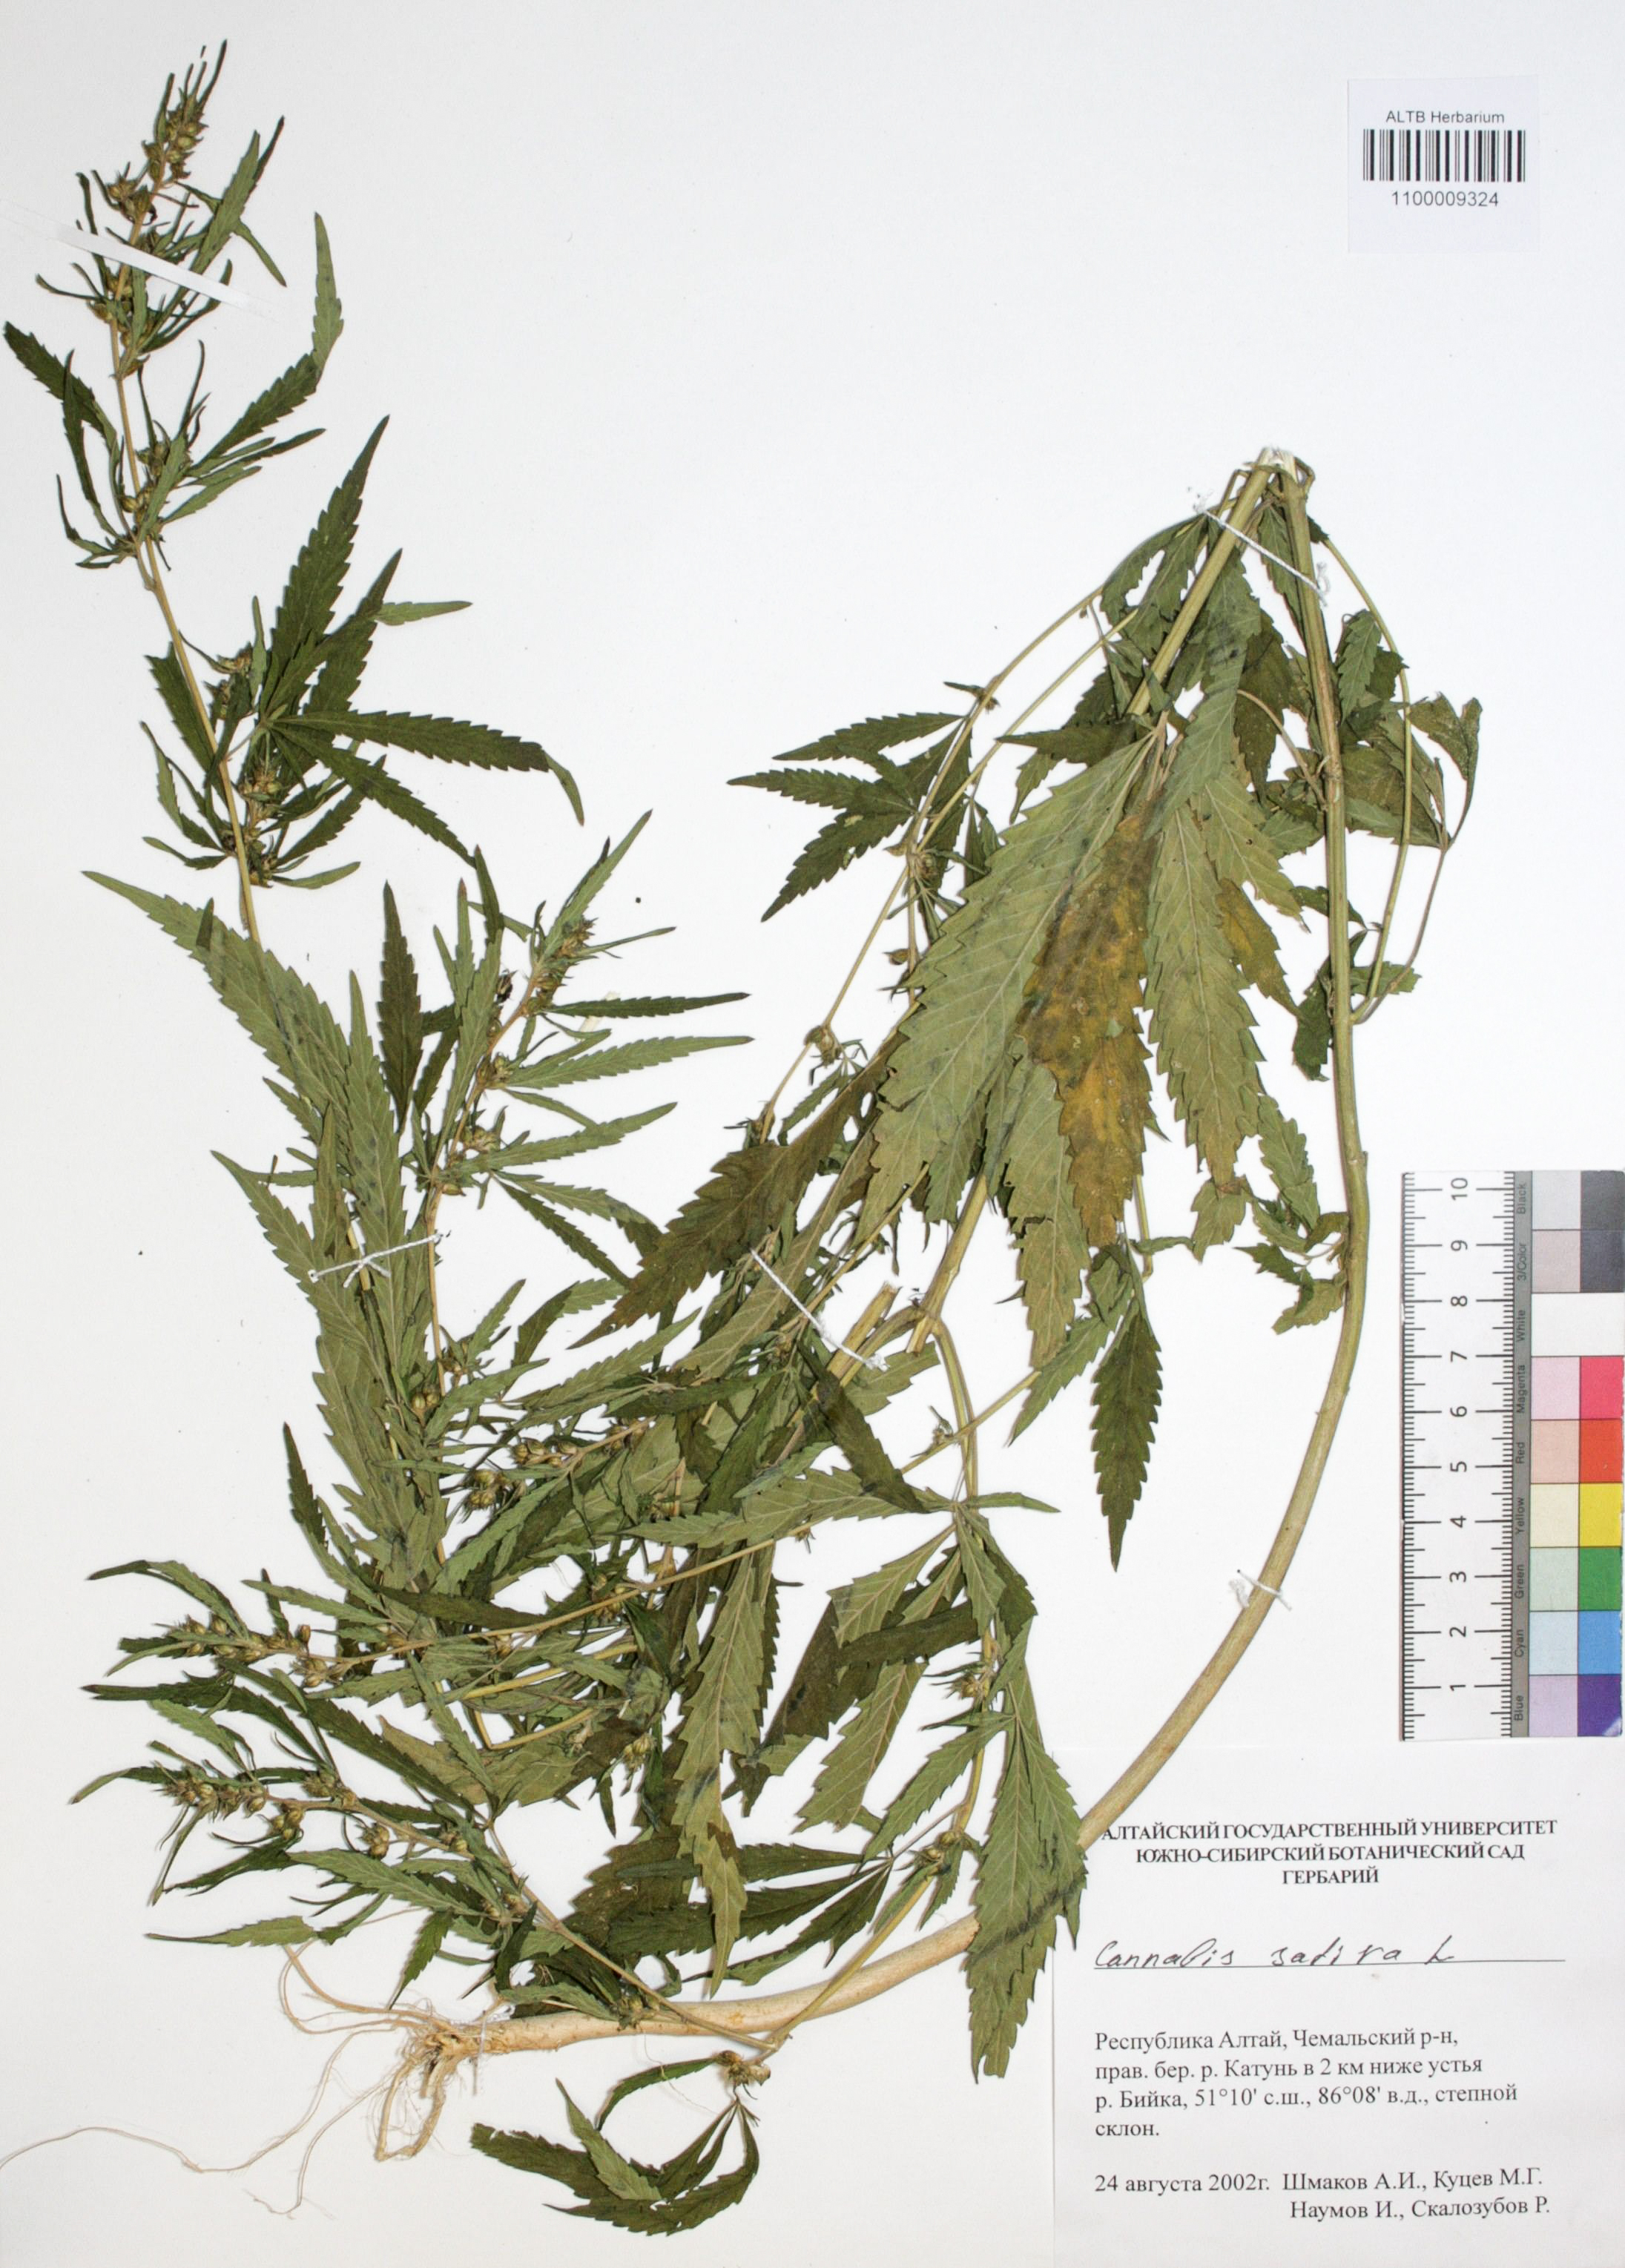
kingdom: Plantae
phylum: Tracheophyta
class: Magnoliopsida
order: Rosales
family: Cannabaceae
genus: Cannabis
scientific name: Cannabis sativa
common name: Hemp
